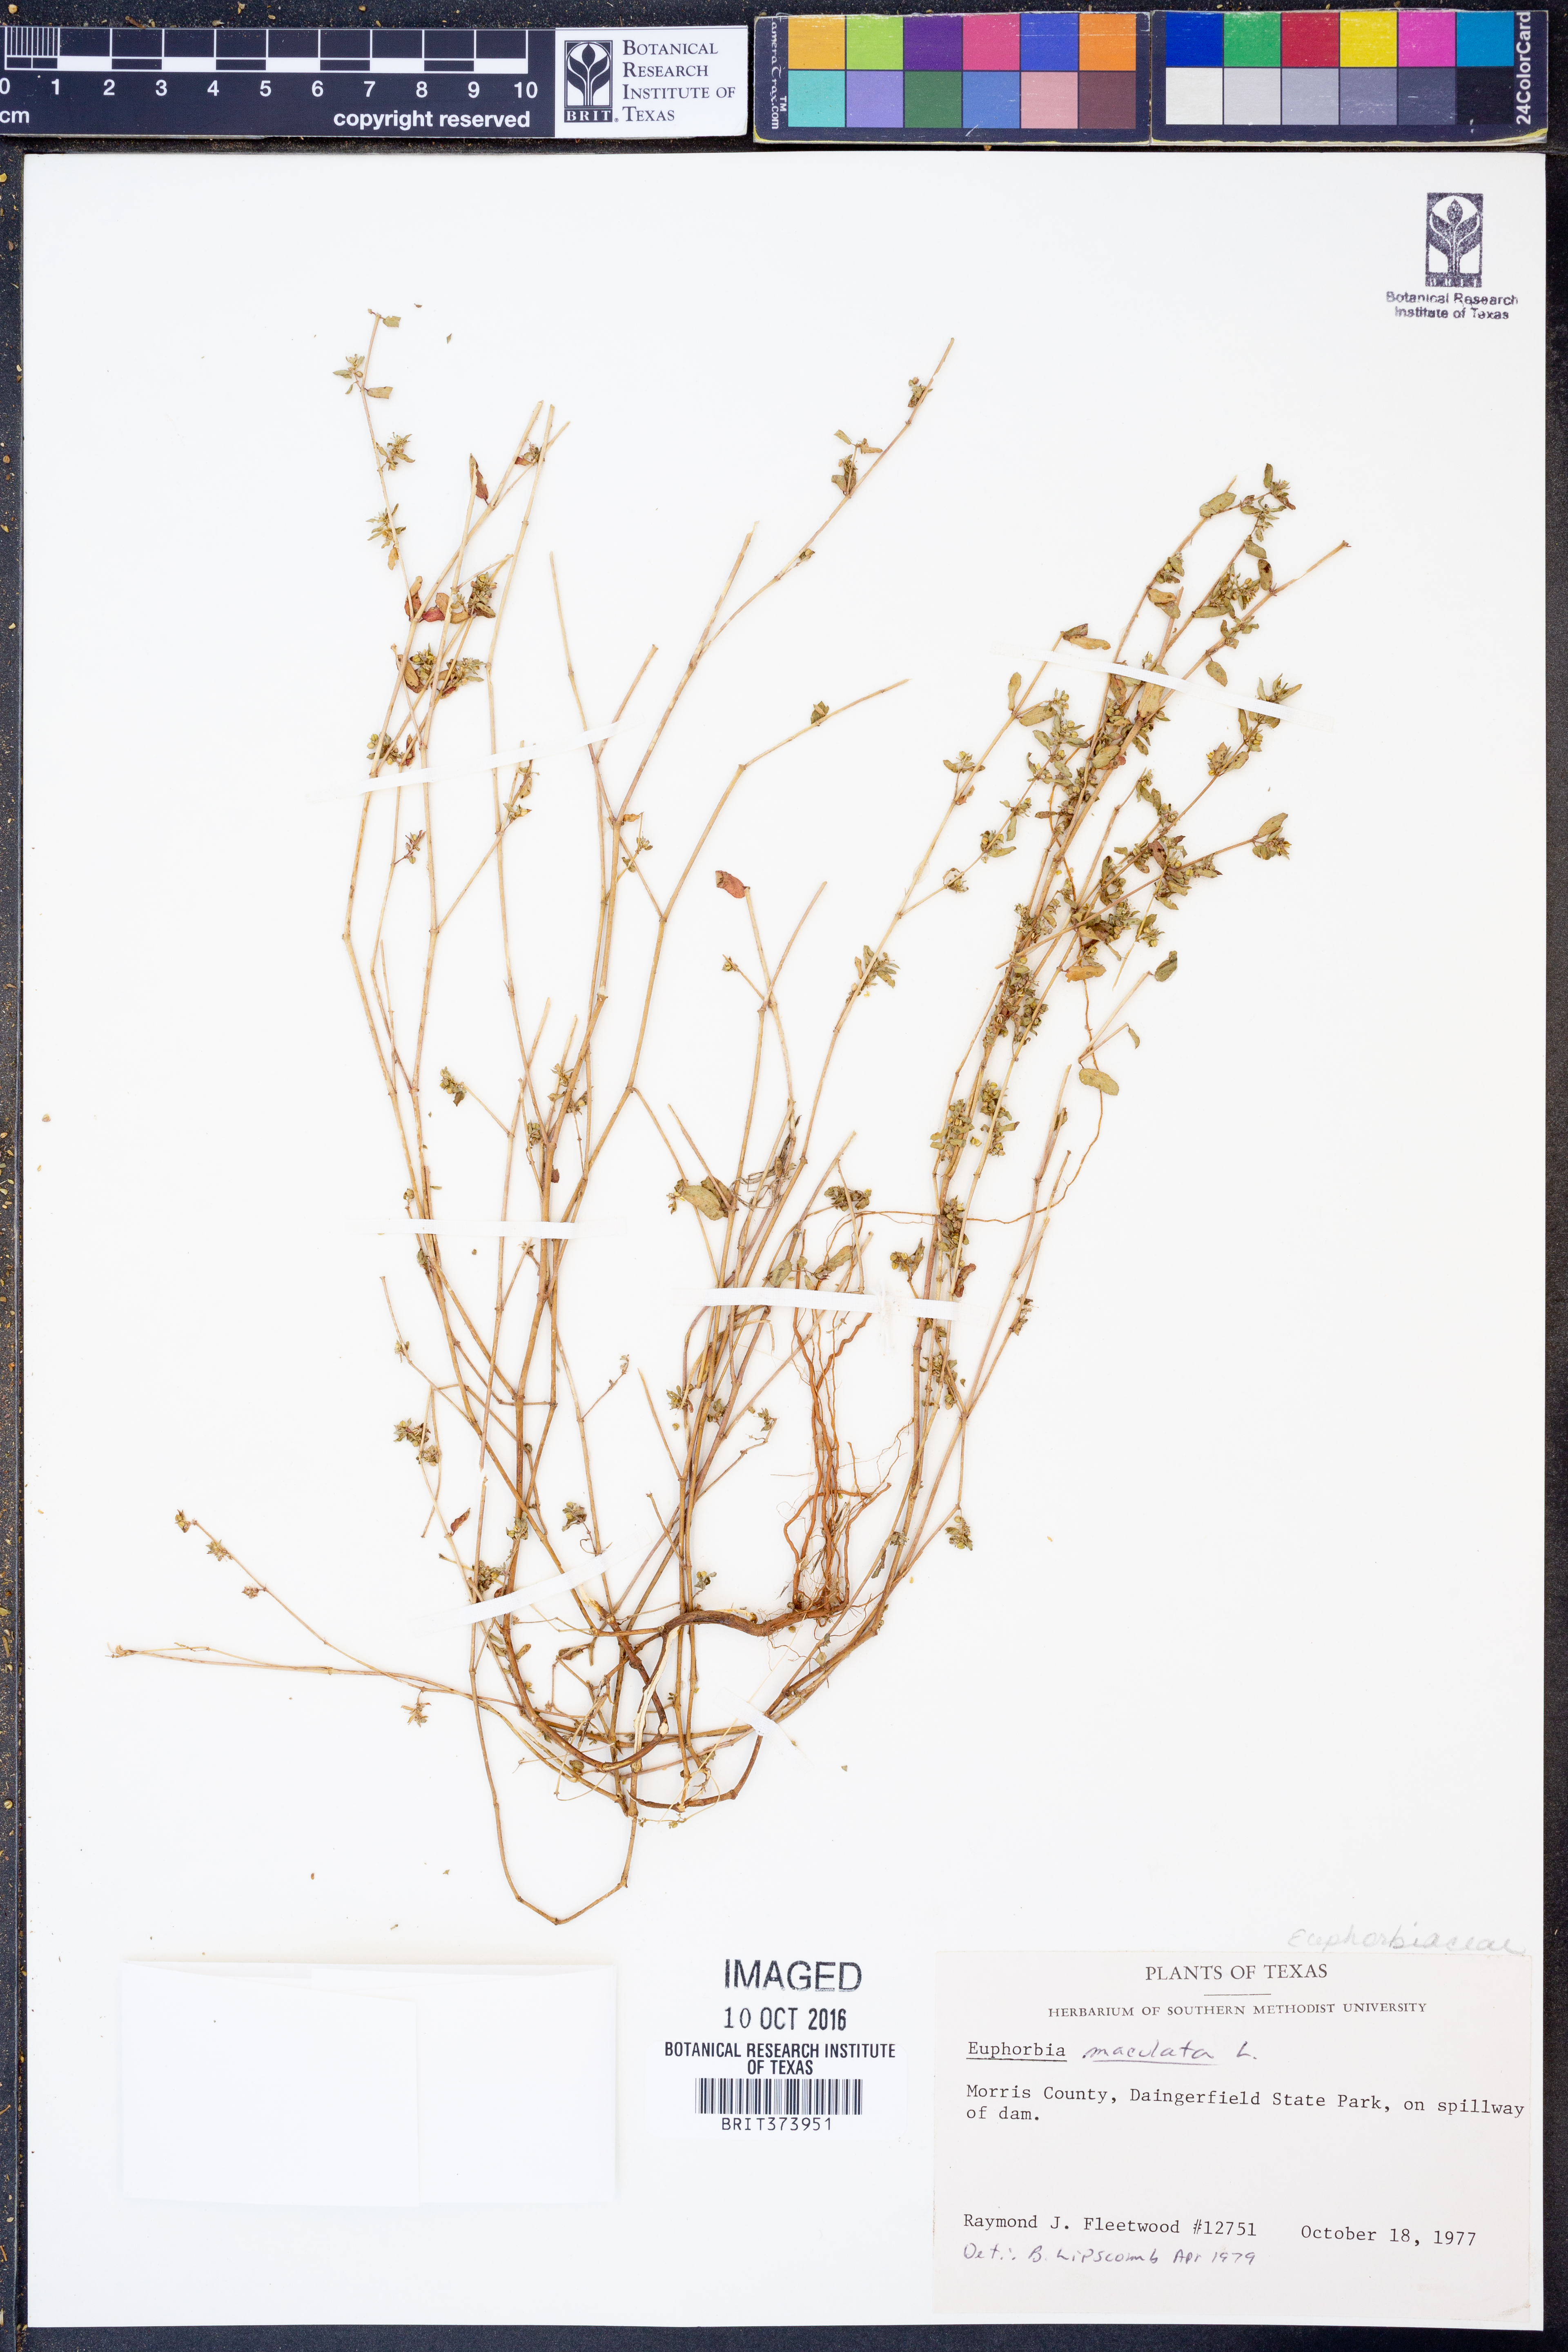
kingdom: Plantae
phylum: Tracheophyta
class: Magnoliopsida
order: Malpighiales
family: Euphorbiaceae
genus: Euphorbia
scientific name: Euphorbia maculata
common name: Spotted spurge
